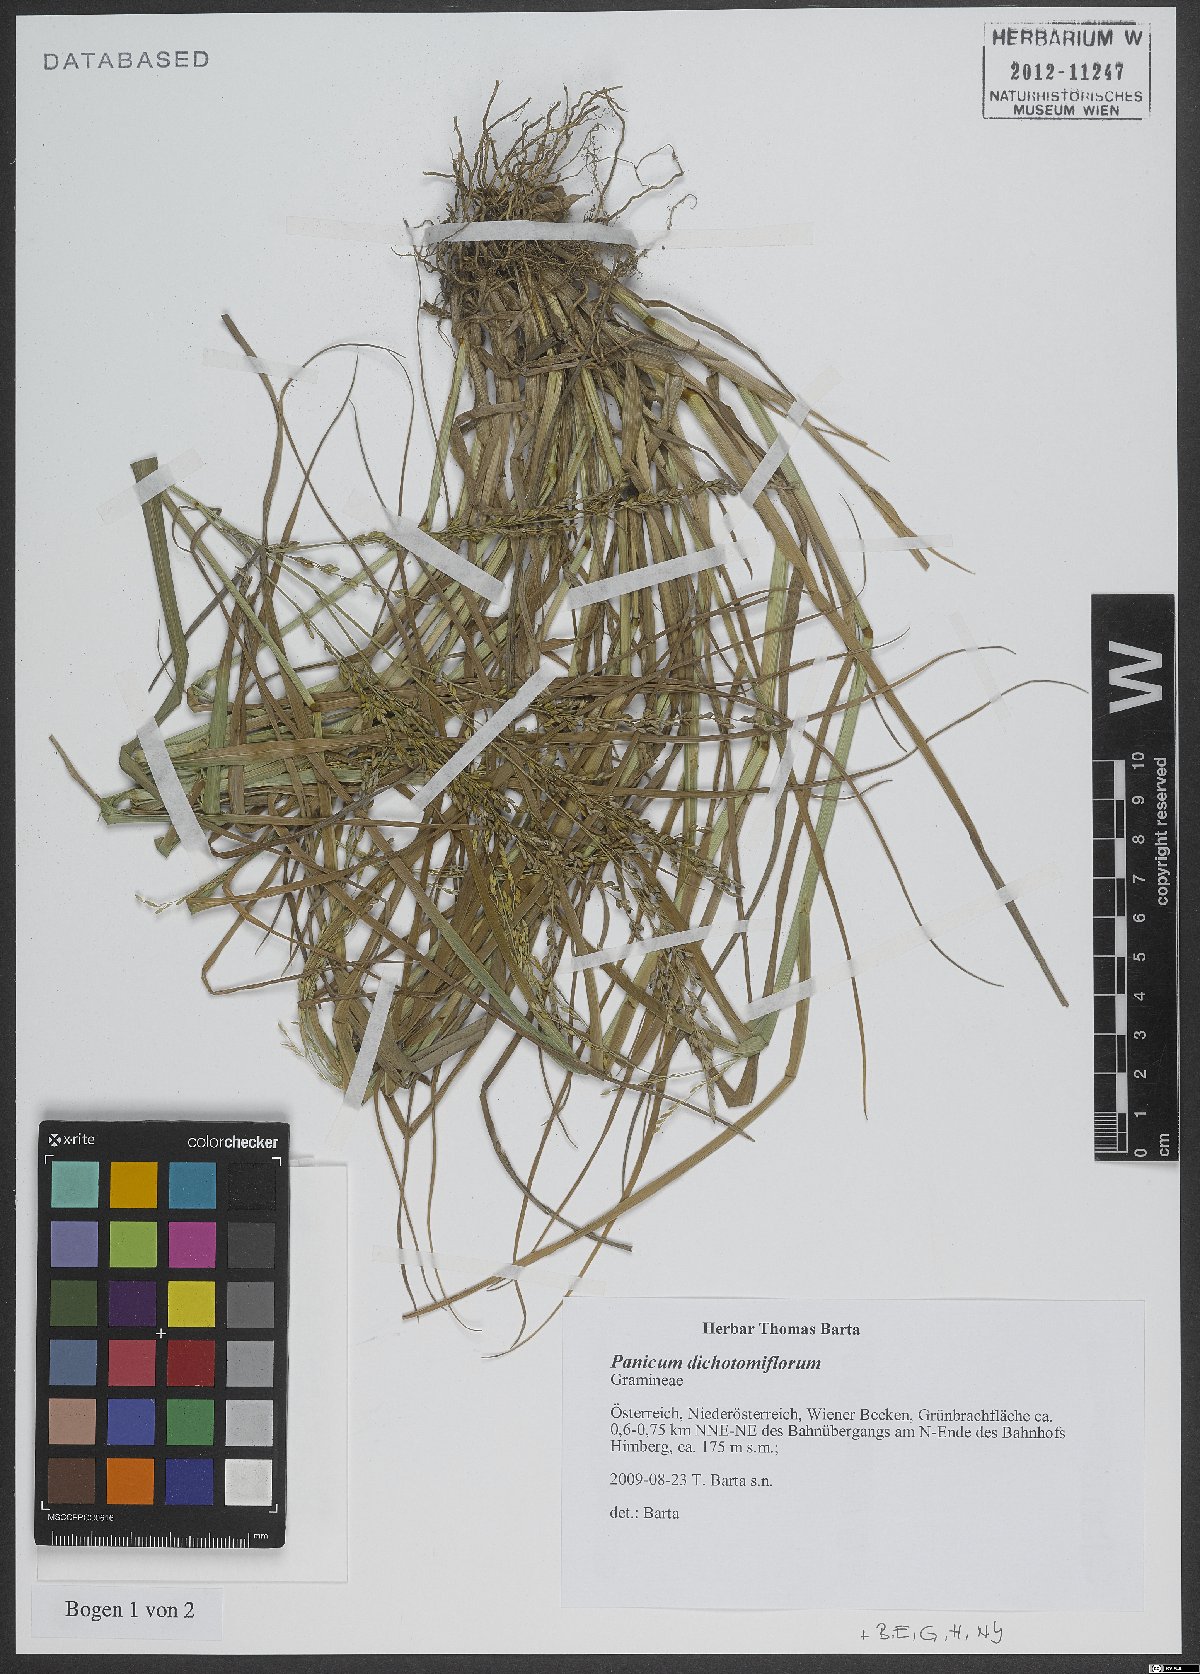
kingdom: Plantae
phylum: Tracheophyta
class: Liliopsida
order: Poales
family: Poaceae
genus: Panicum
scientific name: Panicum dichotomiflorum
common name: Autumn millet
